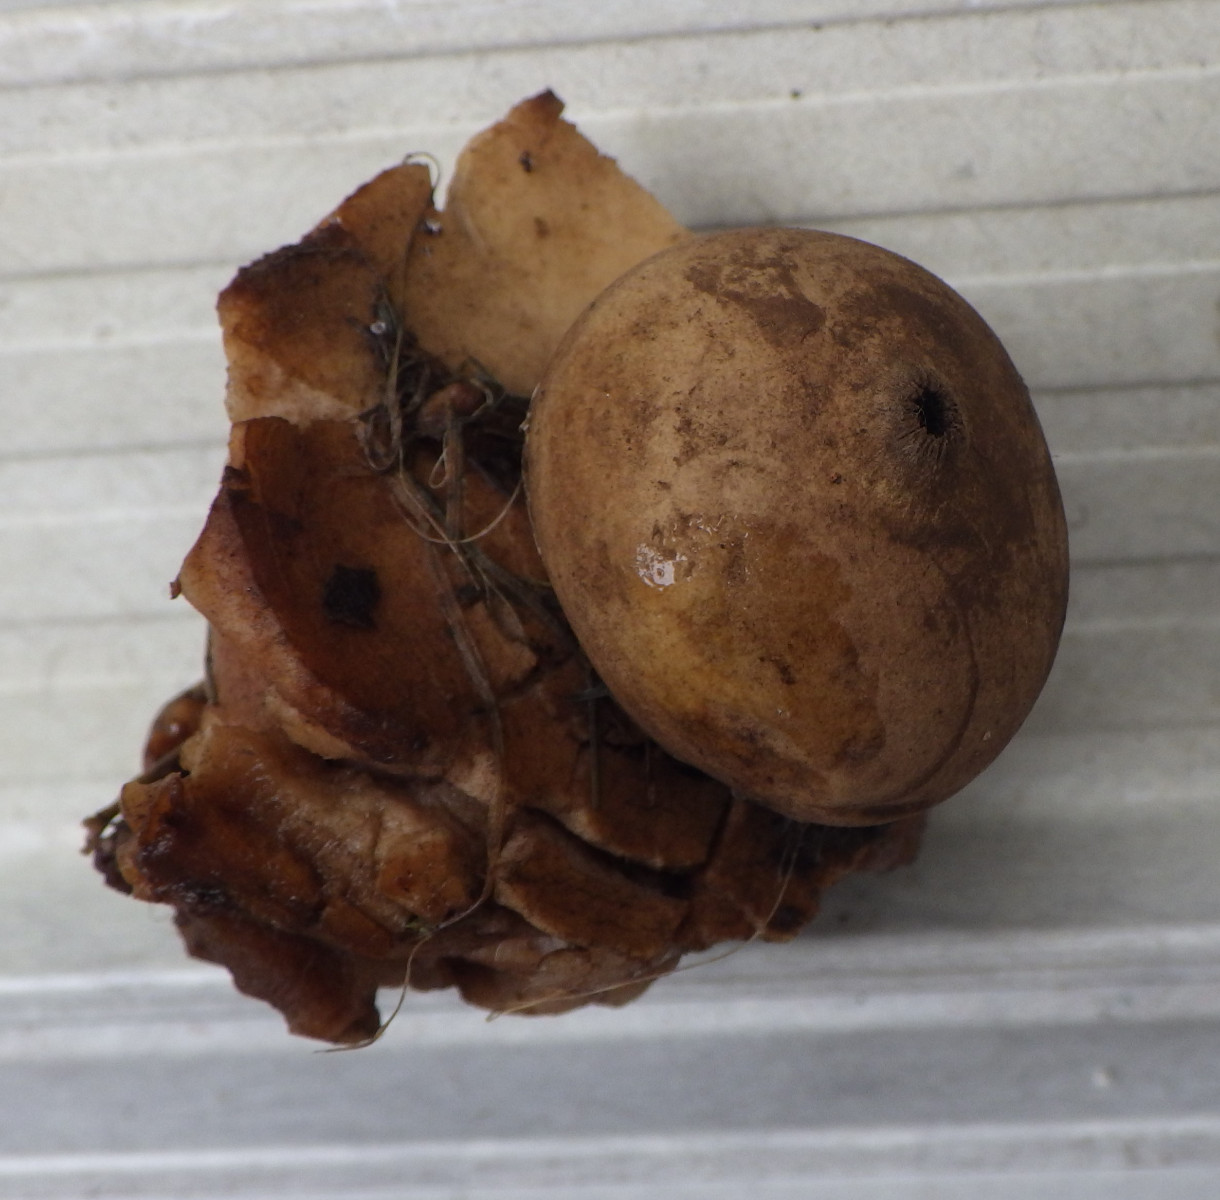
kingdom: Fungi
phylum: Basidiomycota
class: Agaricomycetes
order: Geastrales
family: Geastraceae
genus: Geastrum
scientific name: Geastrum michelianum
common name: kødet stjernebold
